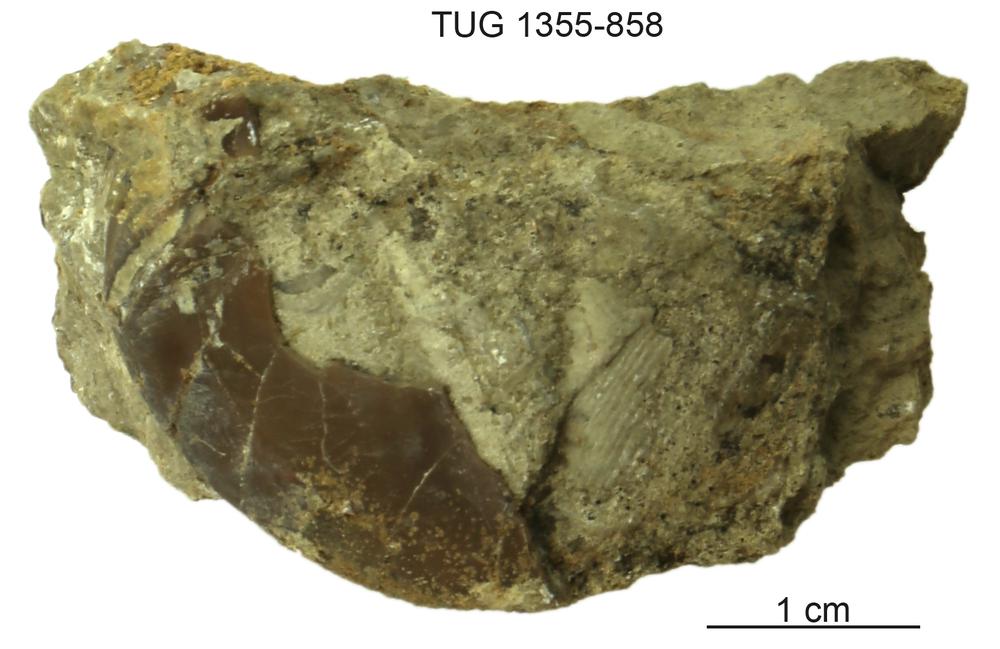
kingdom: Animalia
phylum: Arthropoda
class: Trilobita
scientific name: Trilobita
